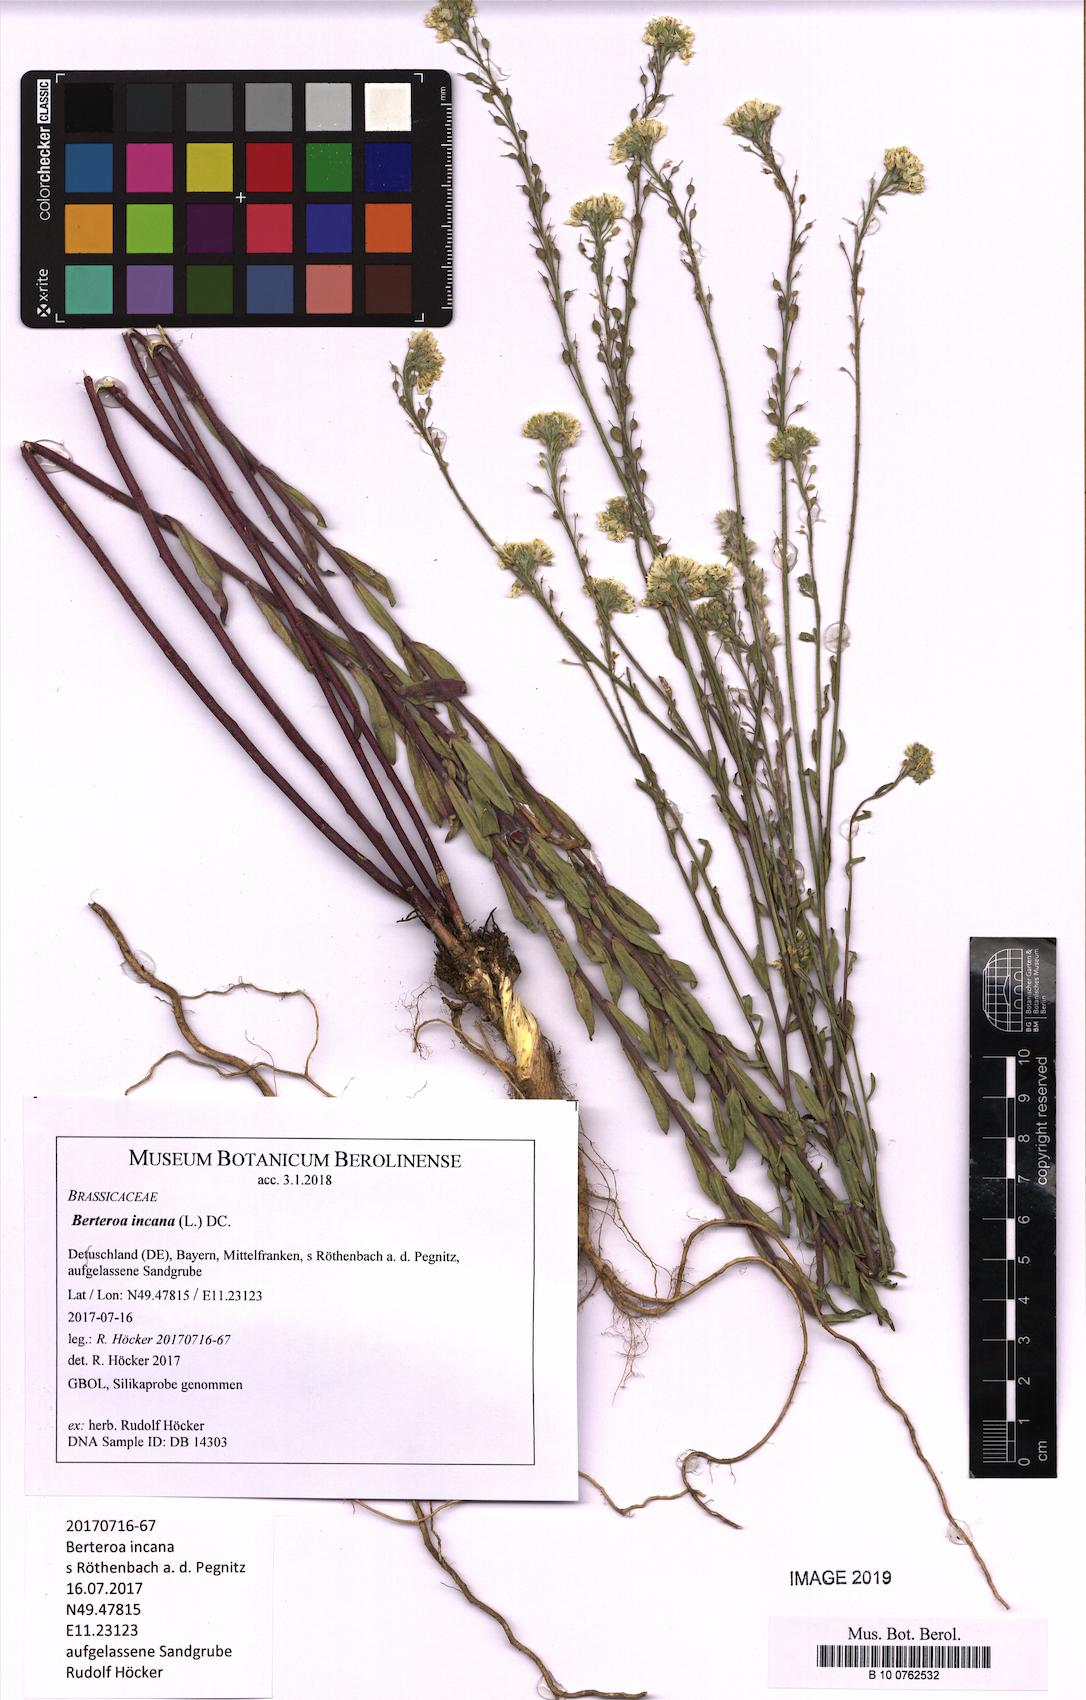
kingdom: Plantae
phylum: Tracheophyta
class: Magnoliopsida
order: Brassicales
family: Brassicaceae
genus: Berteroa
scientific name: Berteroa incana
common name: Hoary alison
